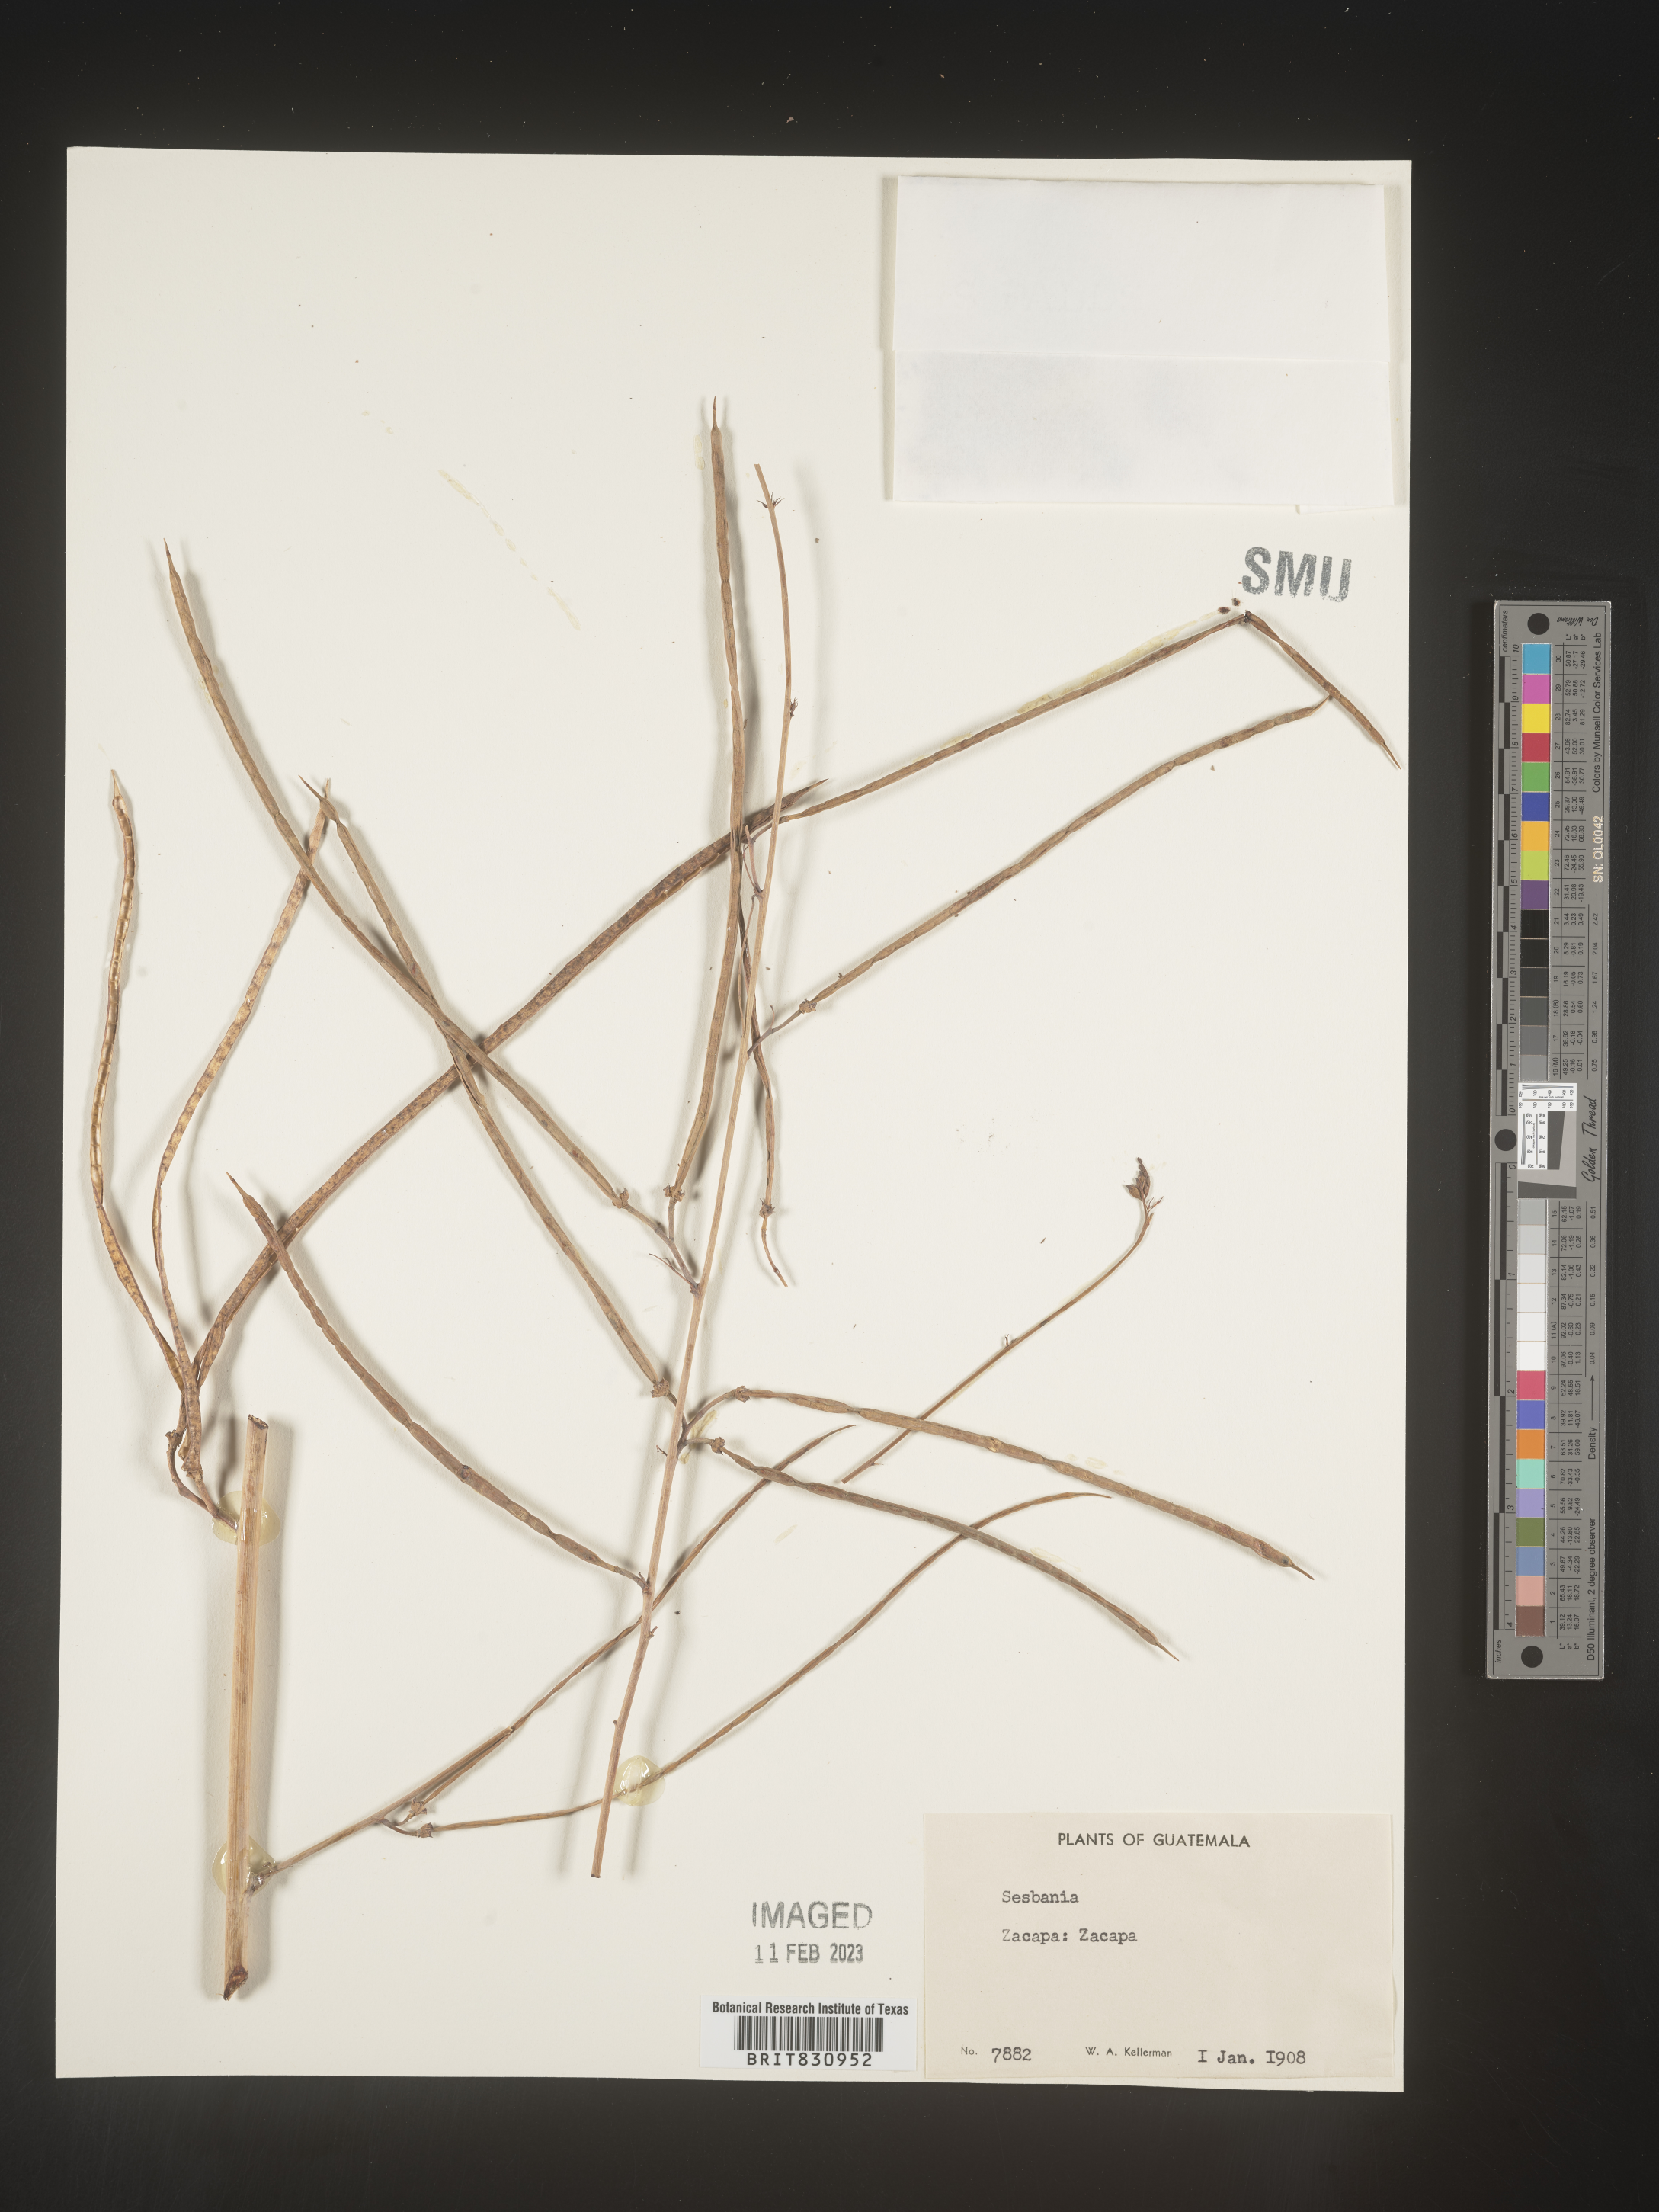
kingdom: Plantae
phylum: Tracheophyta
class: Magnoliopsida
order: Fabales
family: Fabaceae
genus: Sesbania
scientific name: Sesbania
